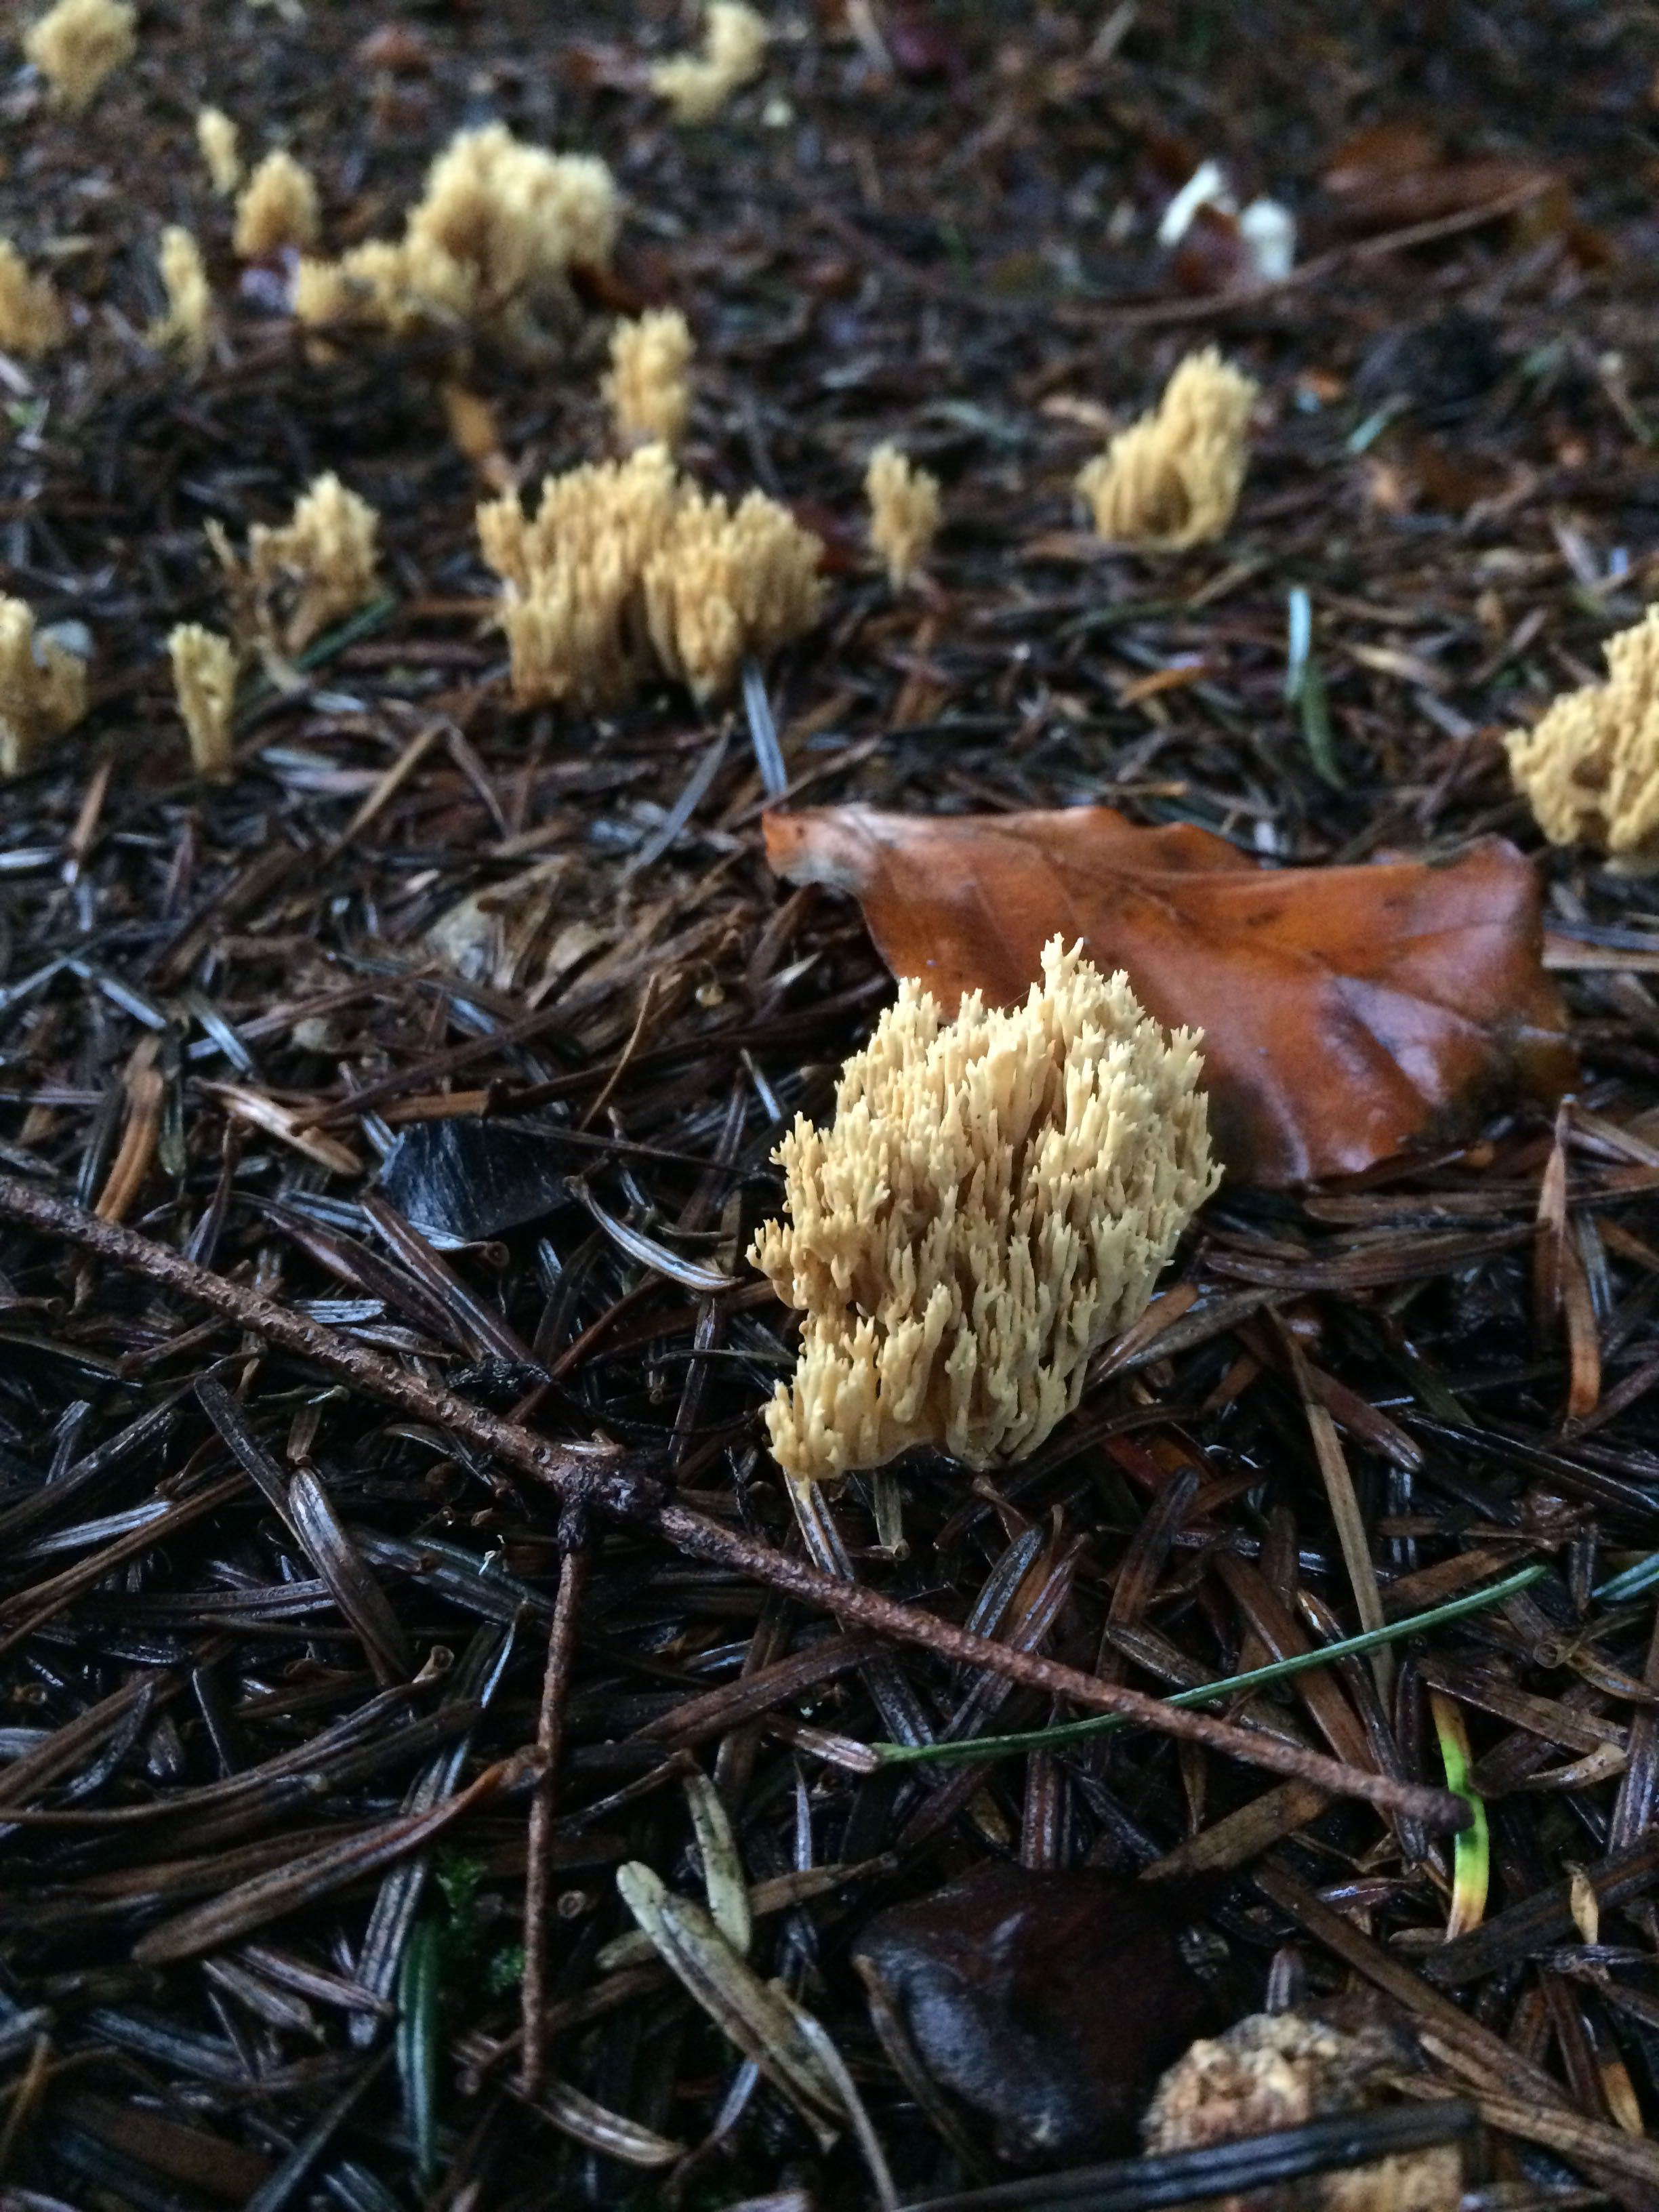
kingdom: Fungi
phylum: Basidiomycota
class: Agaricomycetes
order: Gomphales
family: Gomphaceae
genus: Phaeoclavulina
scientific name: Phaeoclavulina eumorpha
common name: gran-koralsvamp
